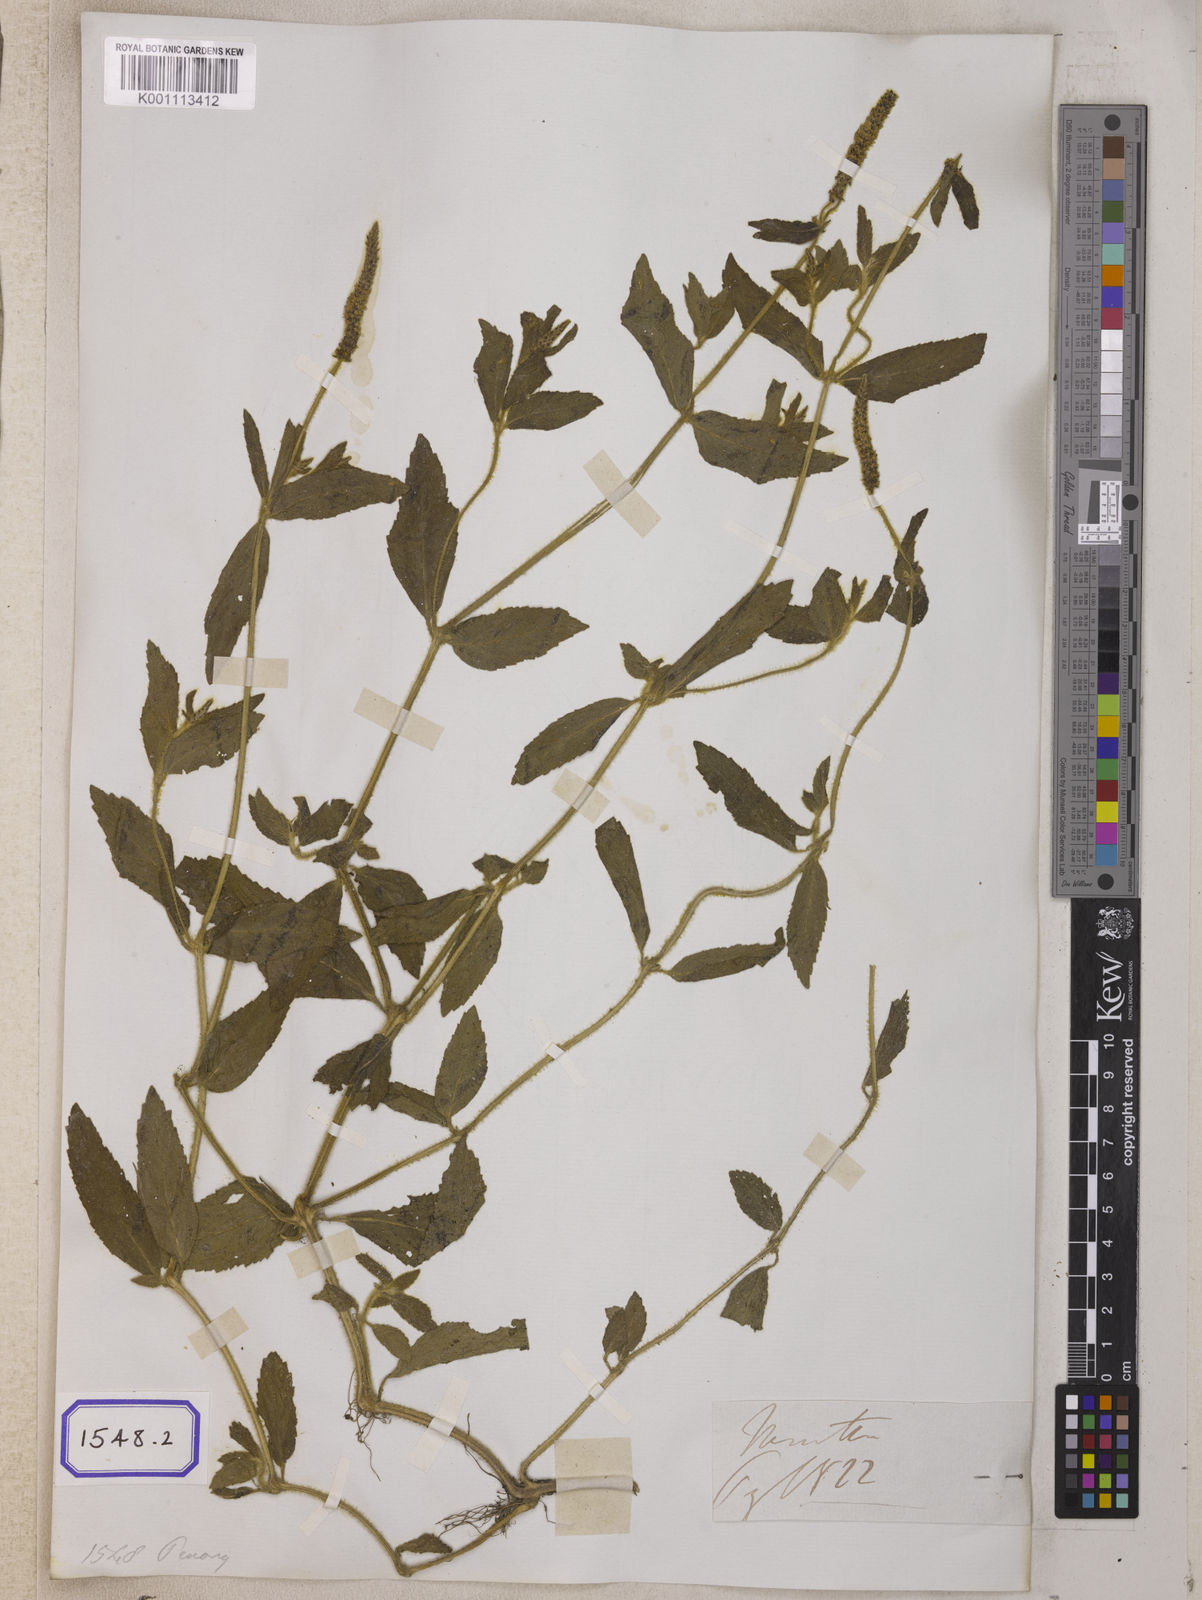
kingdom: Plantae
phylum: Tracheophyta
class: Magnoliopsida
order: Lamiales
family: Lamiaceae
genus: Pogostemon
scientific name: Pogostemon auricularius
